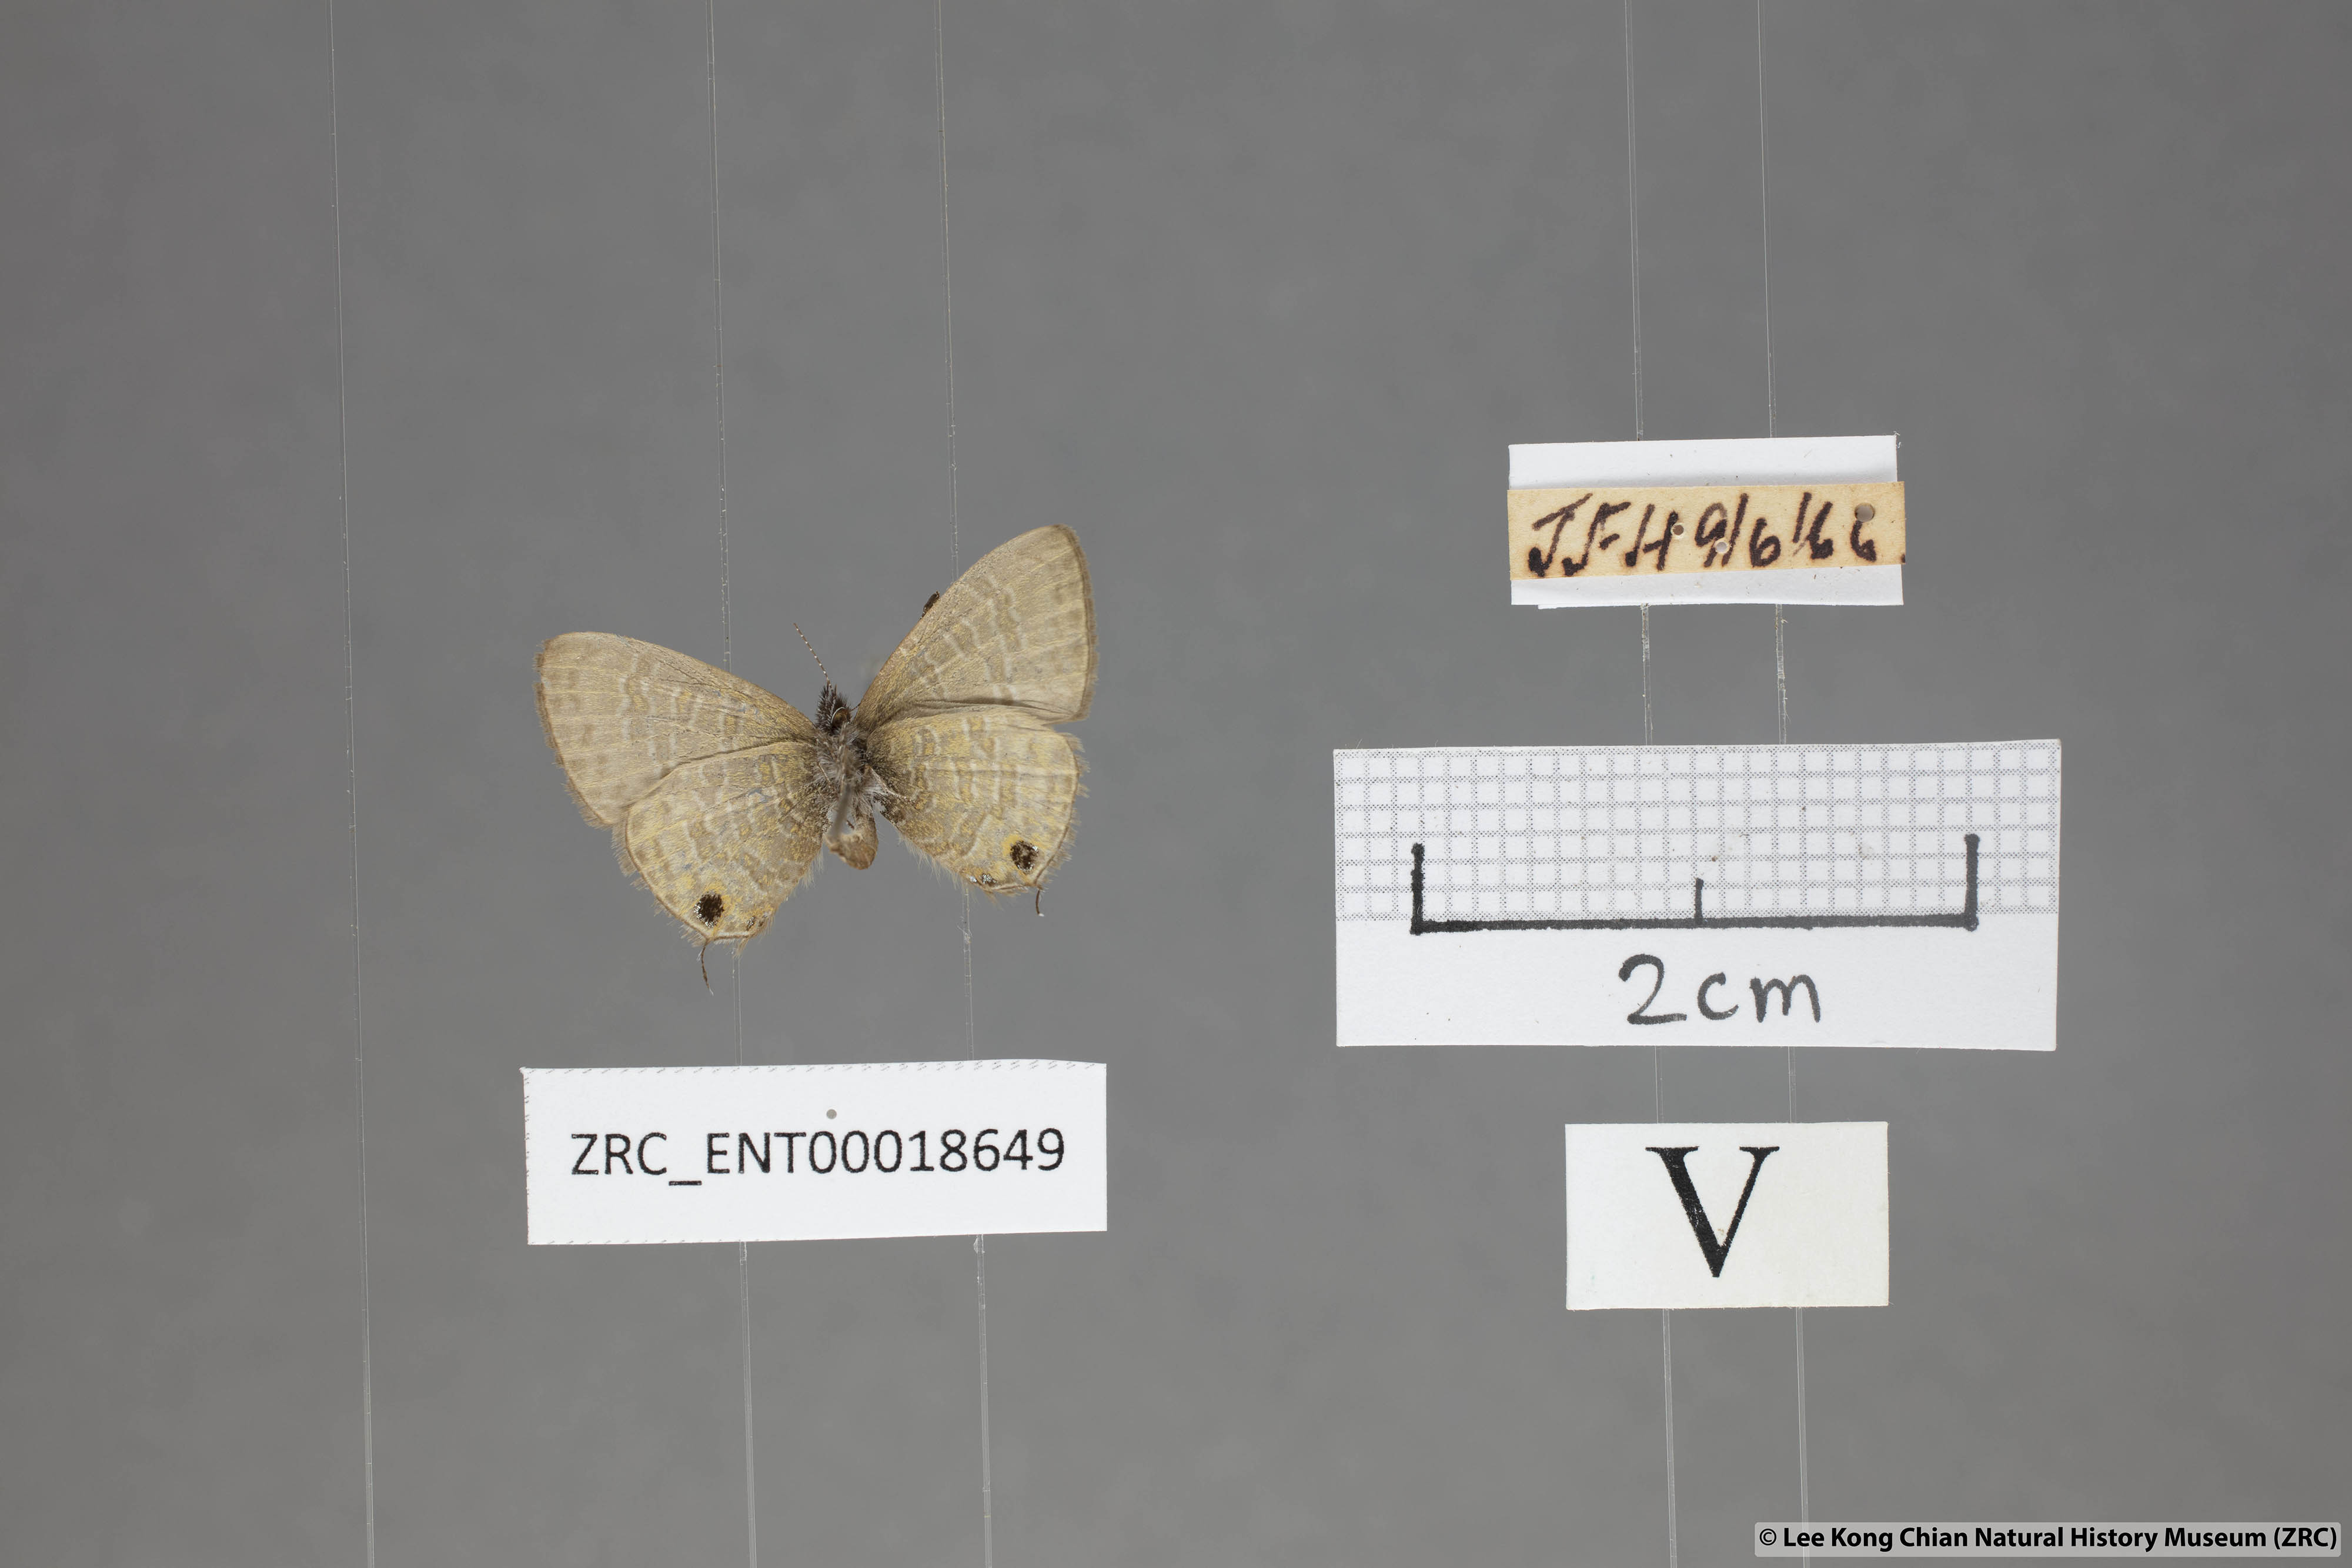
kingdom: Animalia
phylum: Arthropoda
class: Insecta
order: Lepidoptera
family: Lycaenidae
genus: Prosotas
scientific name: Prosotas pia
